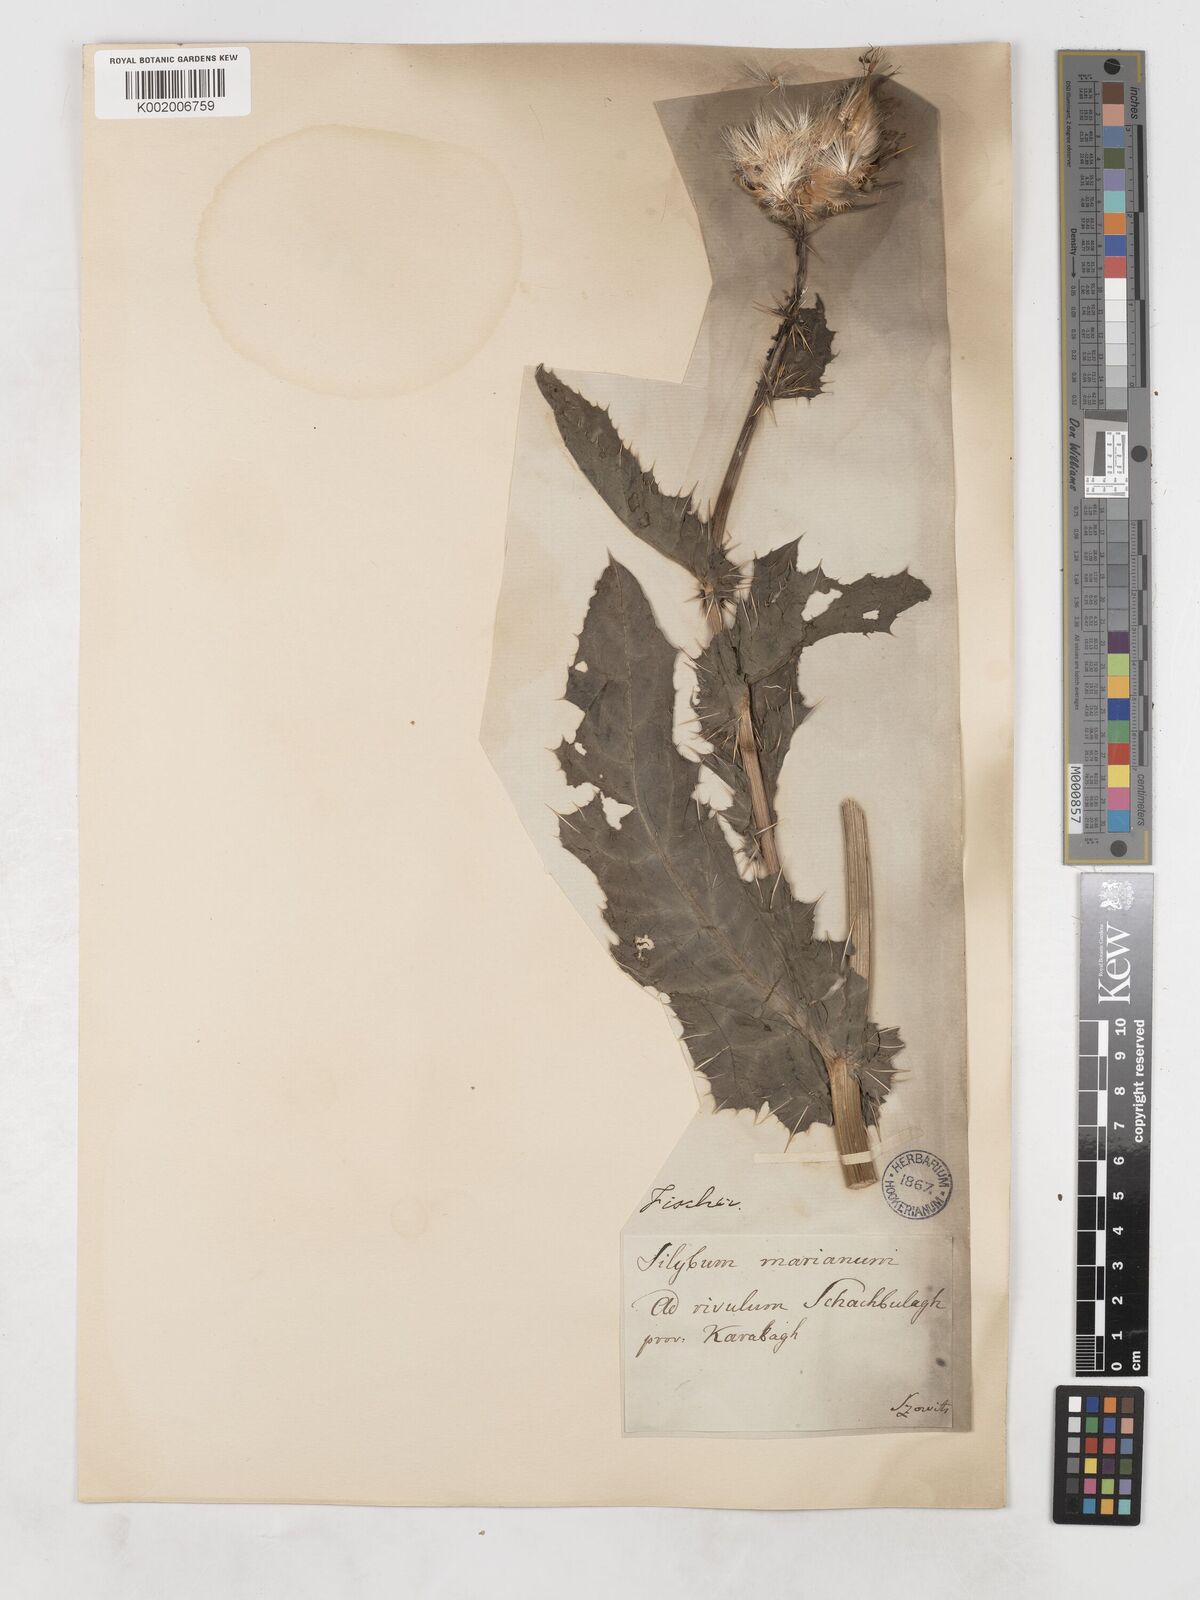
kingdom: Plantae
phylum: Tracheophyta
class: Magnoliopsida
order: Asterales
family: Asteraceae
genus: Silybum
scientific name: Silybum marianum
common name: Milk thistle
